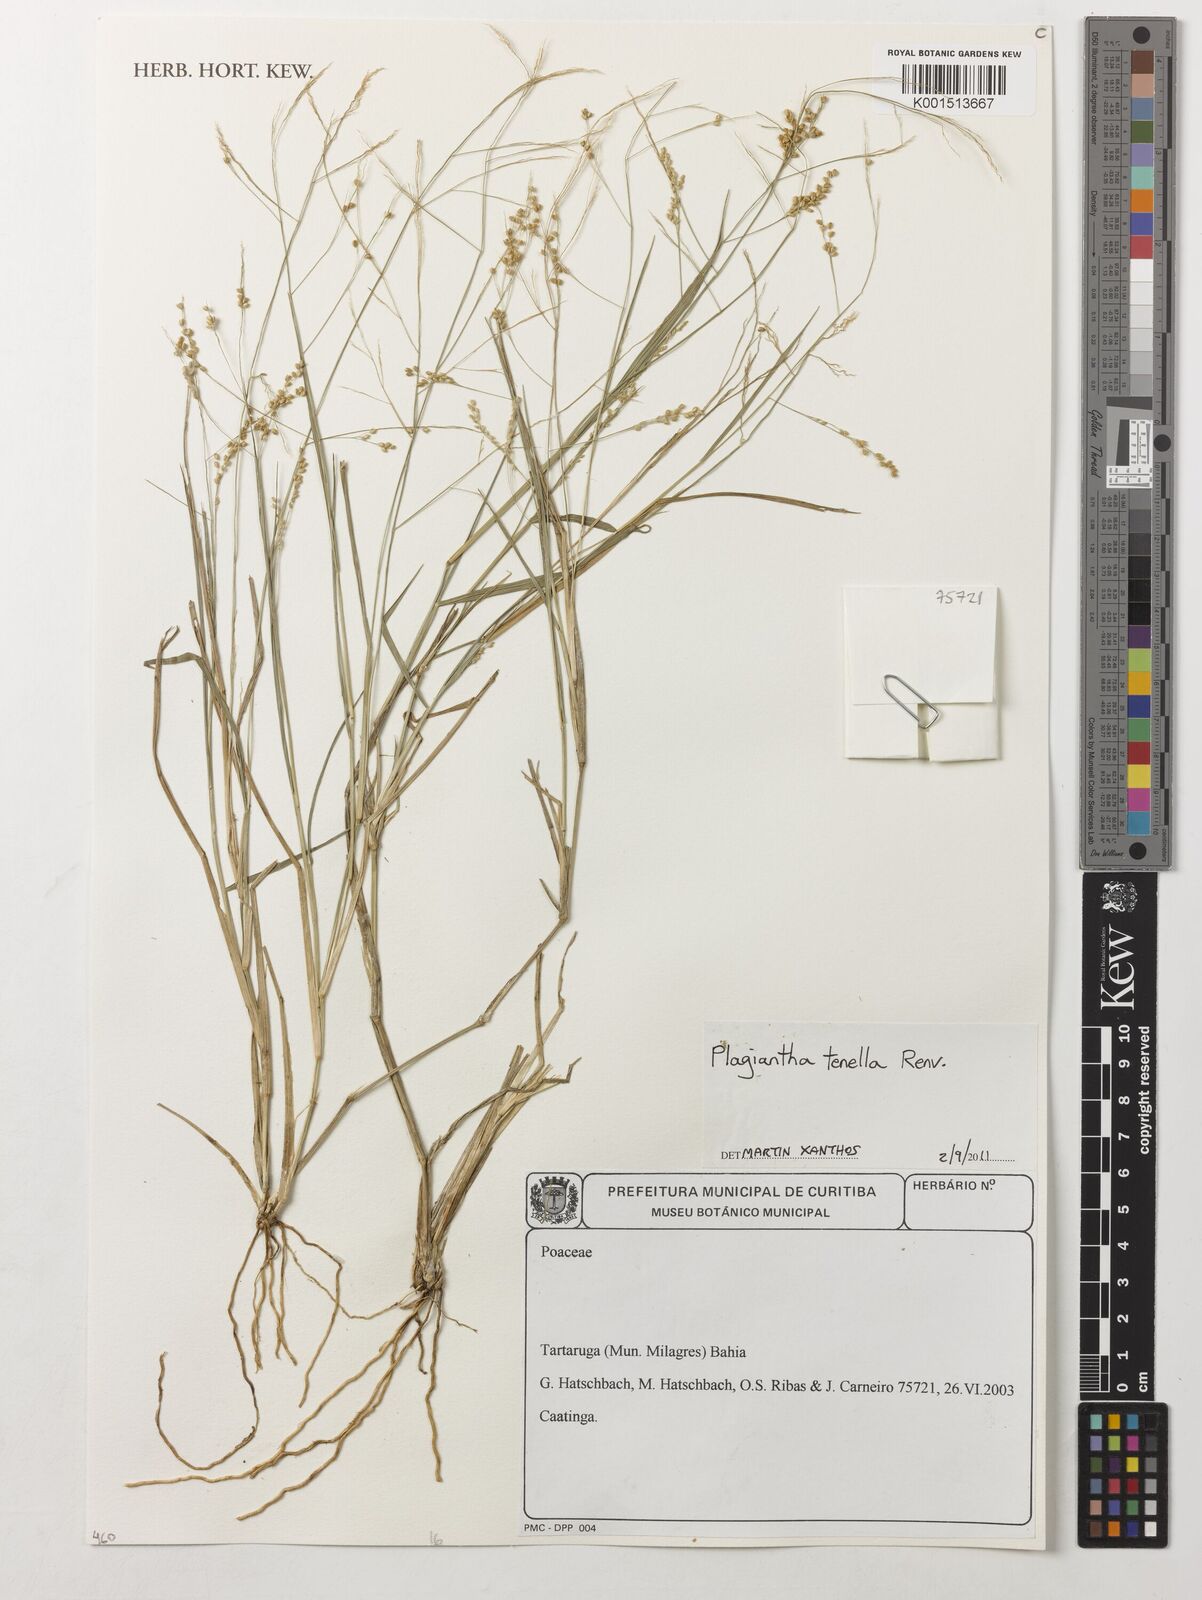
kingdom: Plantae
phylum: Tracheophyta
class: Liliopsida
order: Poales
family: Poaceae
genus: Plagiantha
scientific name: Plagiantha tenella
